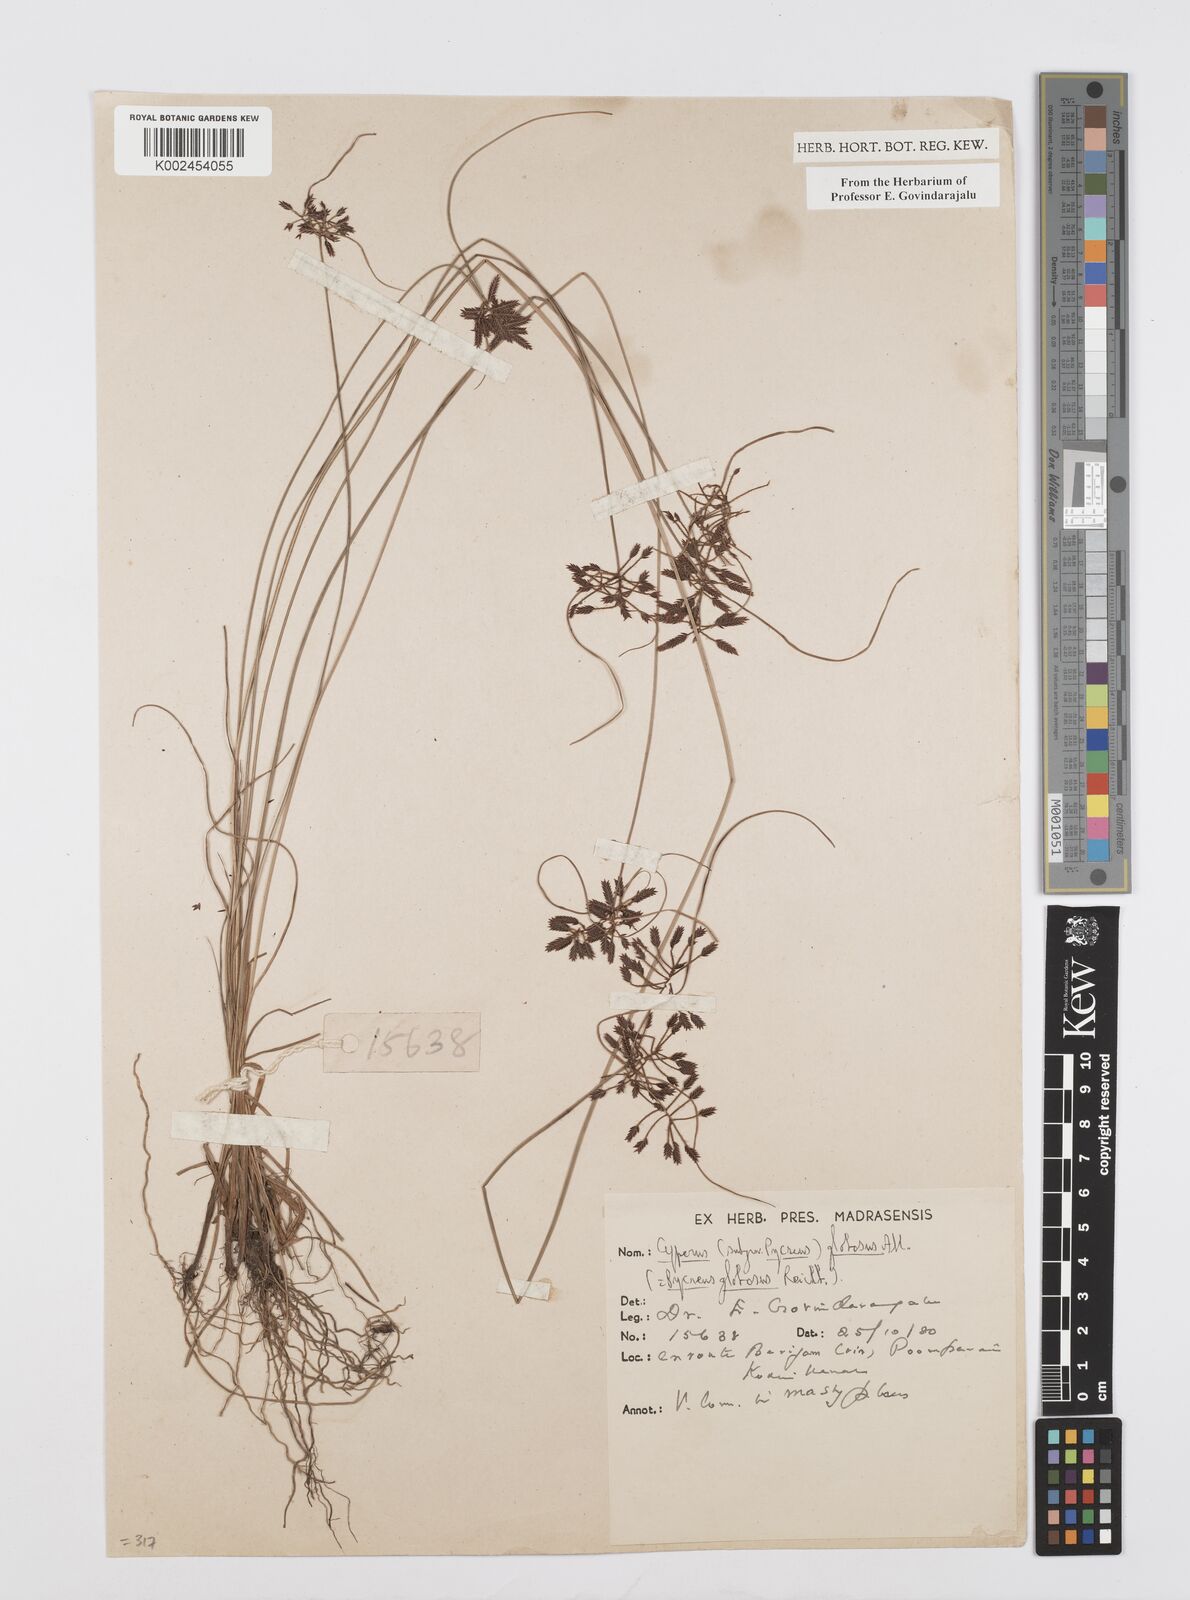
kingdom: Plantae
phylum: Tracheophyta
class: Liliopsida
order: Poales
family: Cyperaceae
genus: Cyperus
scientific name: Cyperus flavidus
